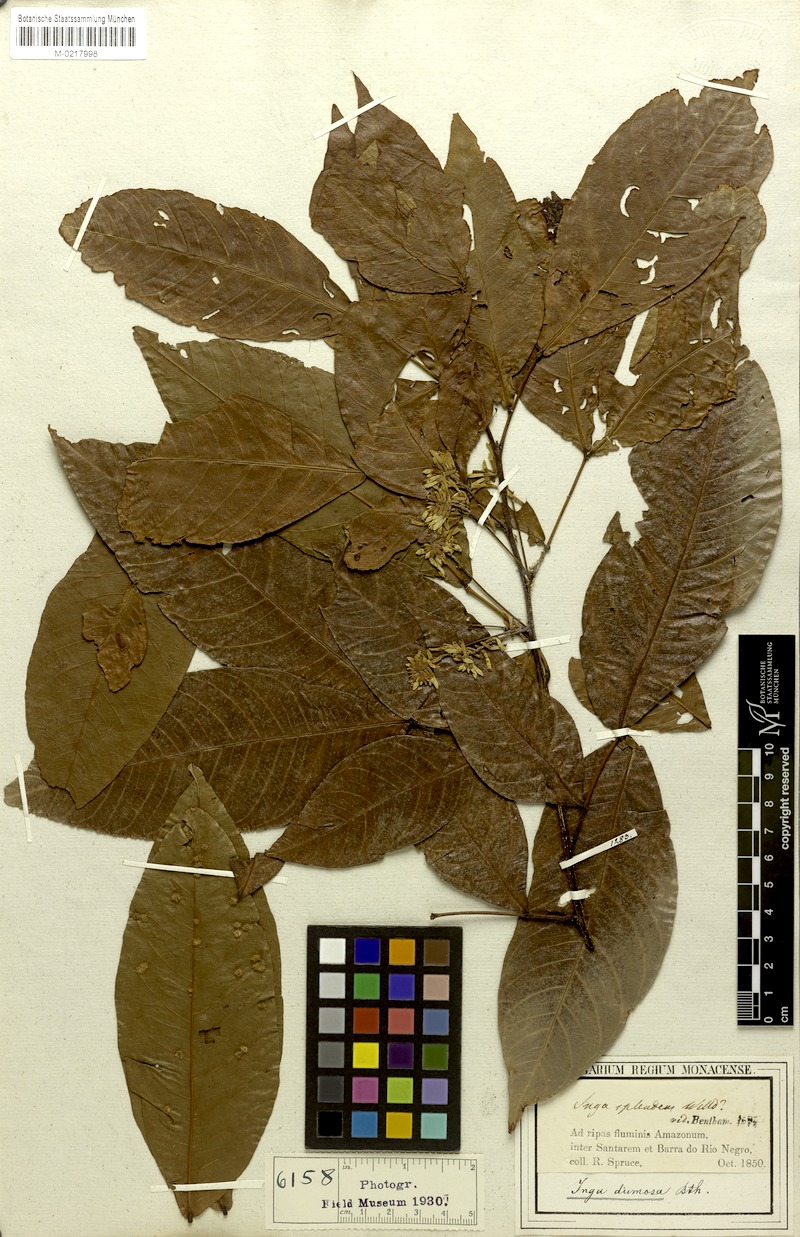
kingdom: Plantae
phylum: Tracheophyta
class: Magnoliopsida
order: Fabales
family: Fabaceae
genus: Inga
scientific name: Inga stenoptera
